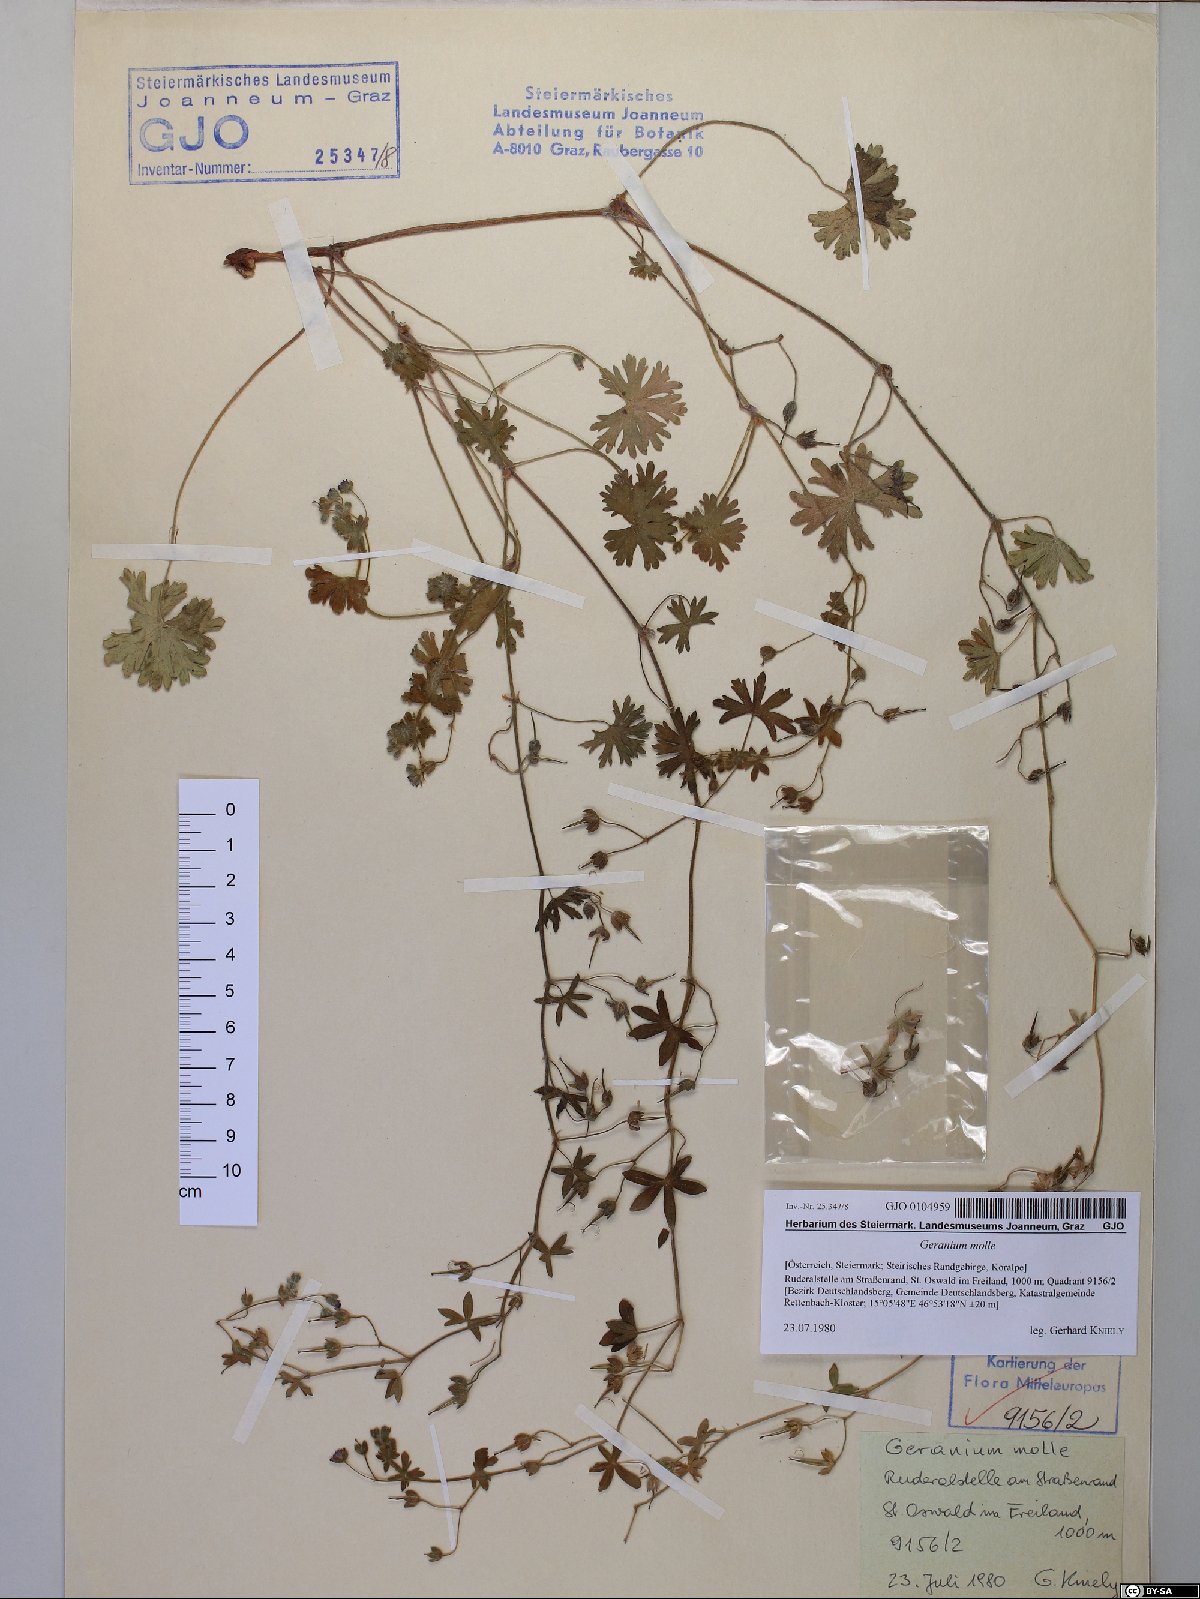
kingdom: Plantae
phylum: Tracheophyta
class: Magnoliopsida
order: Geraniales
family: Geraniaceae
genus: Geranium
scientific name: Geranium molle
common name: Dove's-foot crane's-bill
